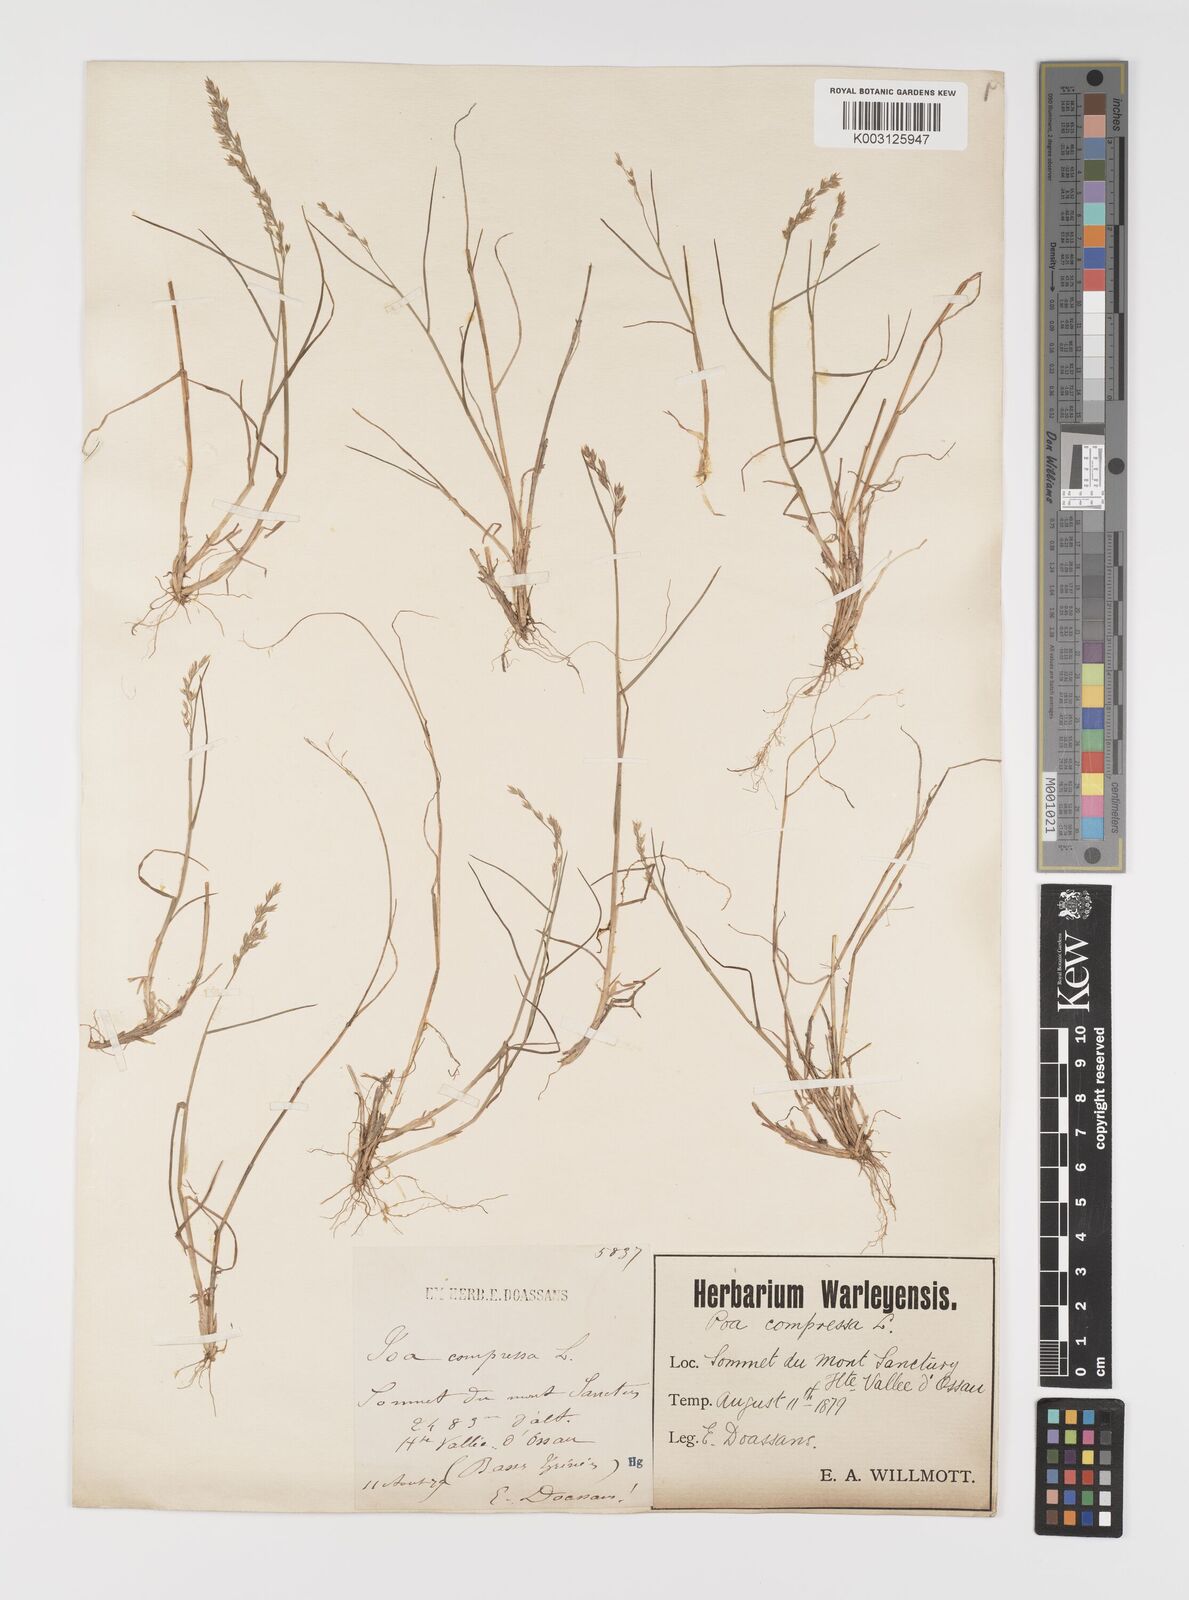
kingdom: Plantae
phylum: Tracheophyta
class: Liliopsida
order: Poales
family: Poaceae
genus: Poa
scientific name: Poa laxa
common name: Lax bluegrass
